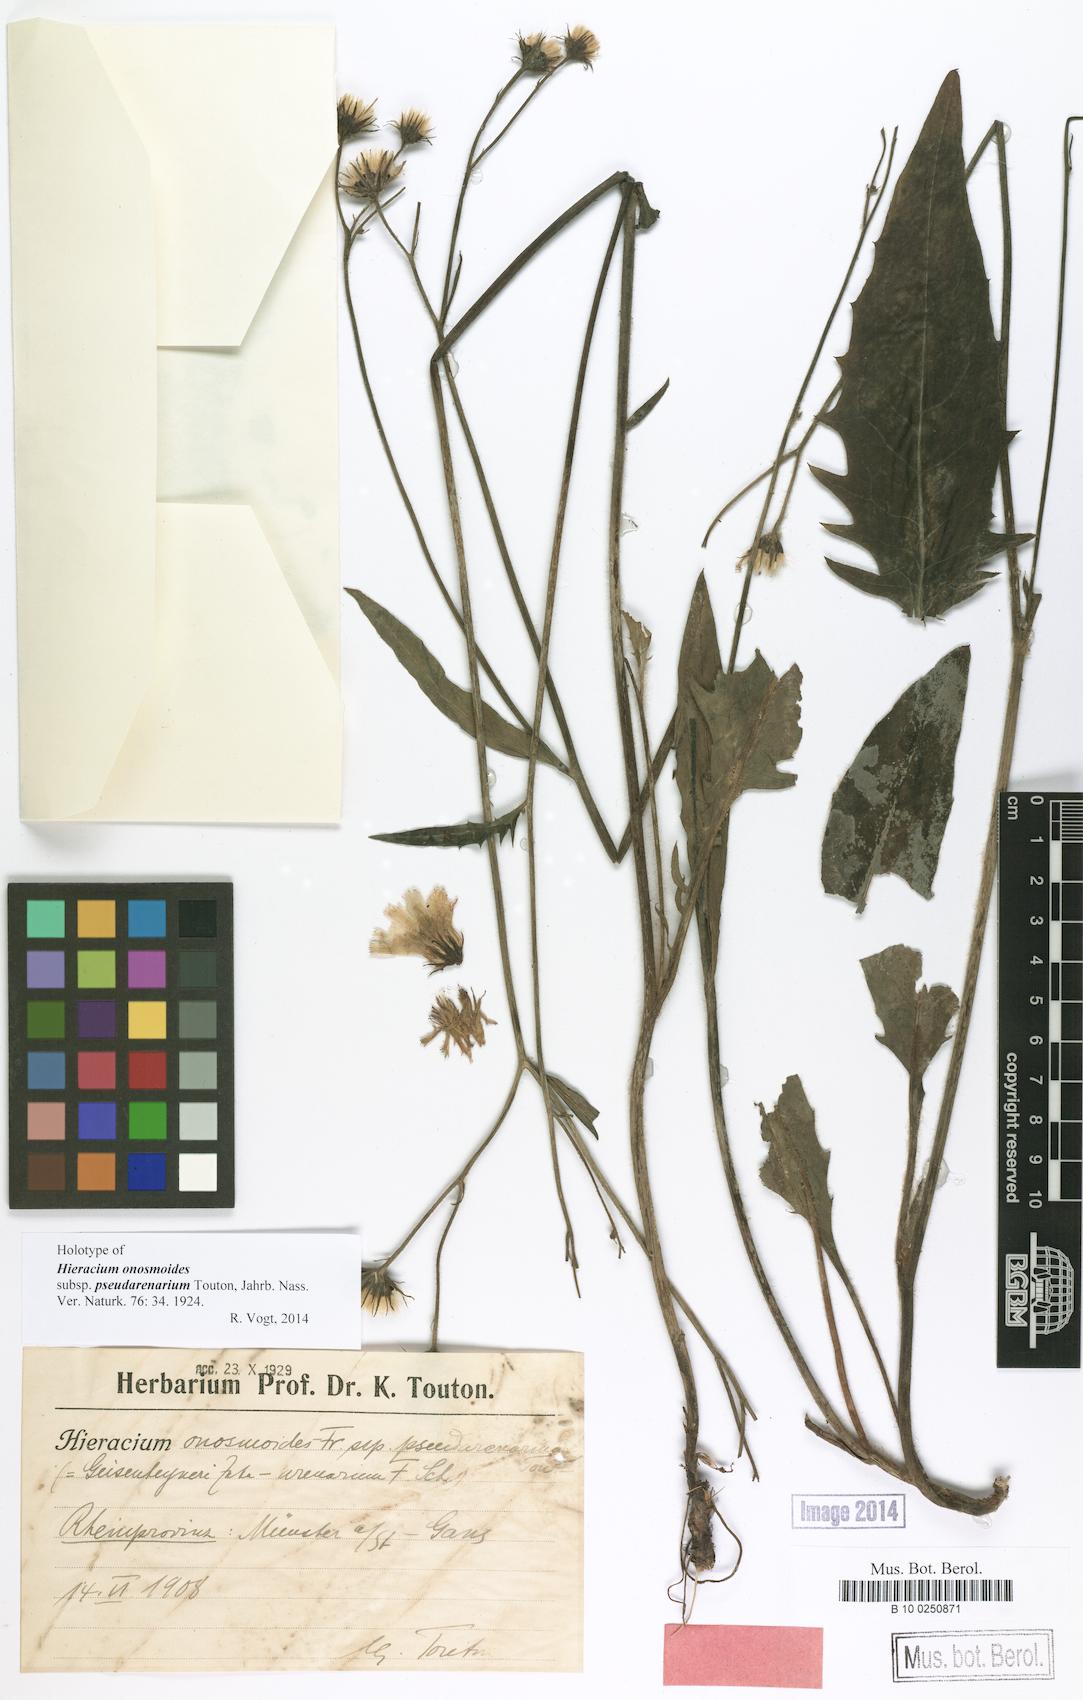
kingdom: Plantae
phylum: Tracheophyta
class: Magnoliopsida
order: Asterales
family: Asteraceae
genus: Hieracium
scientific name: Hieracium maculatum
